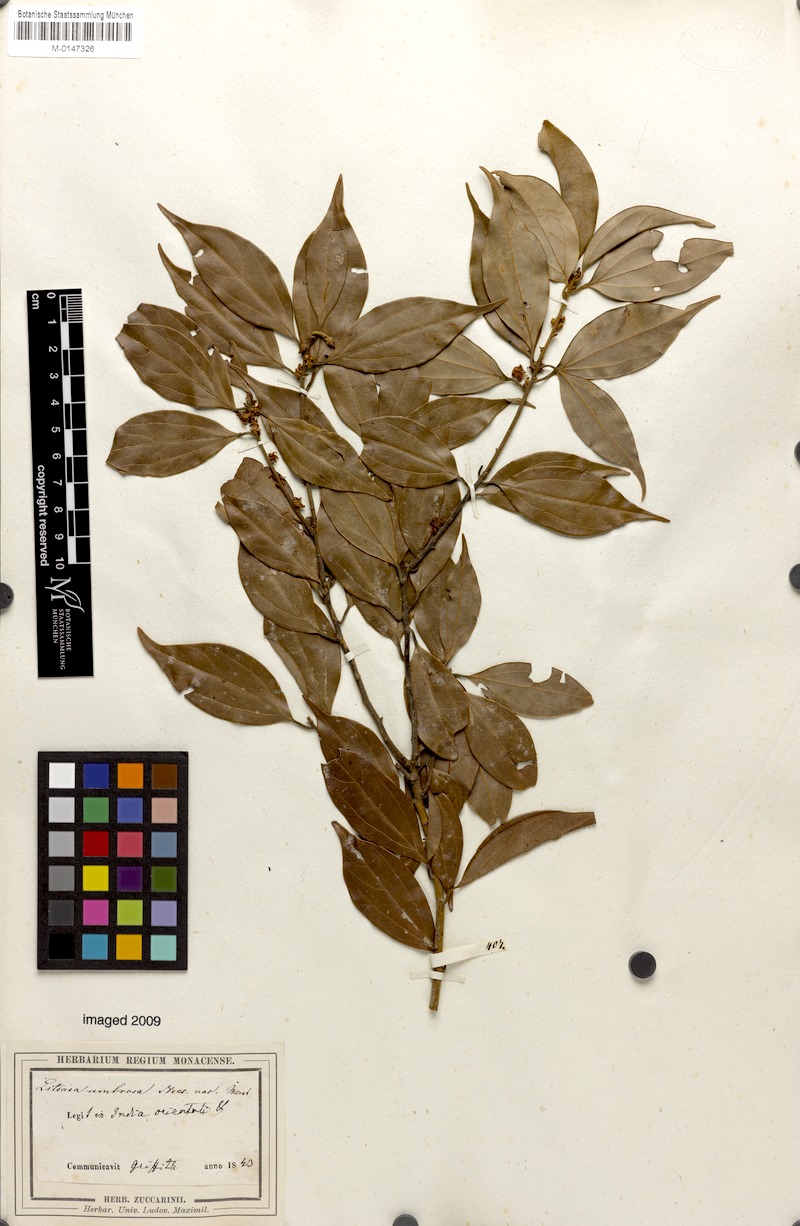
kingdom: Plantae
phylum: Tracheophyta
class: Magnoliopsida
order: Laurales
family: Lauraceae
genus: Neolitsea
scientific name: Neolitsea umbrosa
